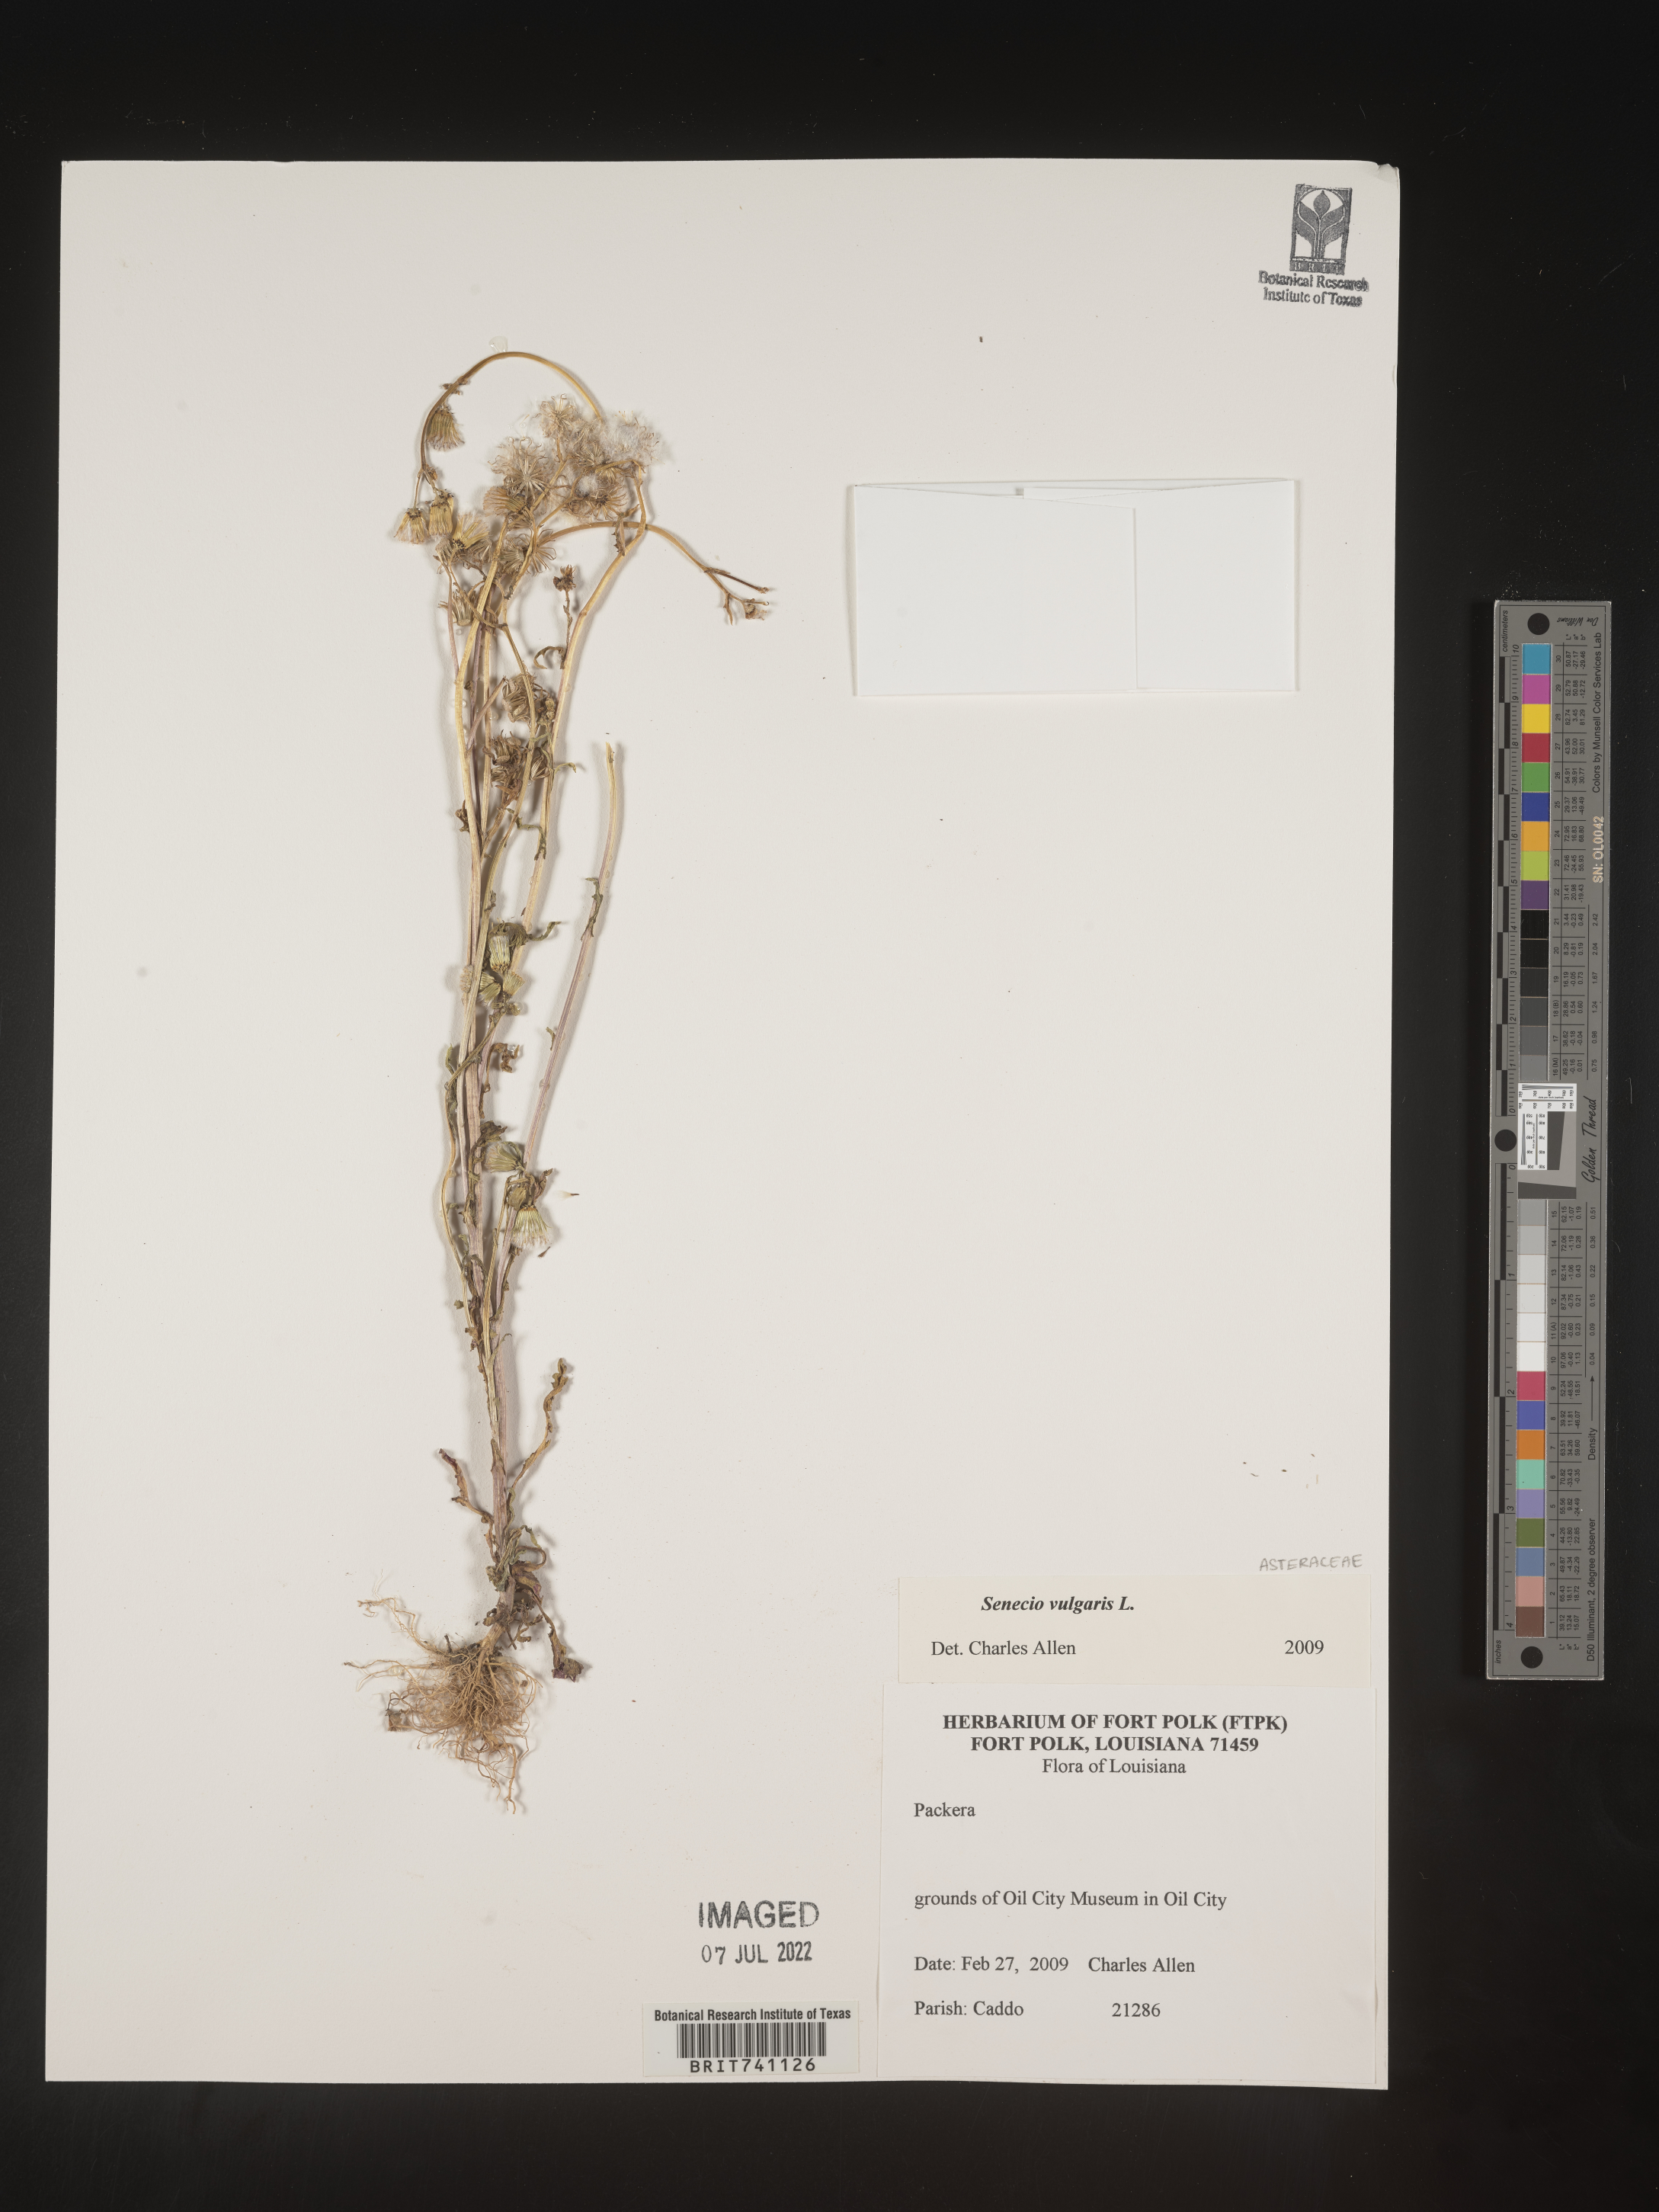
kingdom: Plantae
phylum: Tracheophyta
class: Magnoliopsida
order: Asterales
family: Asteraceae
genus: Senecio
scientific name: Senecio vulgaris
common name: Old-man-in-the-spring
